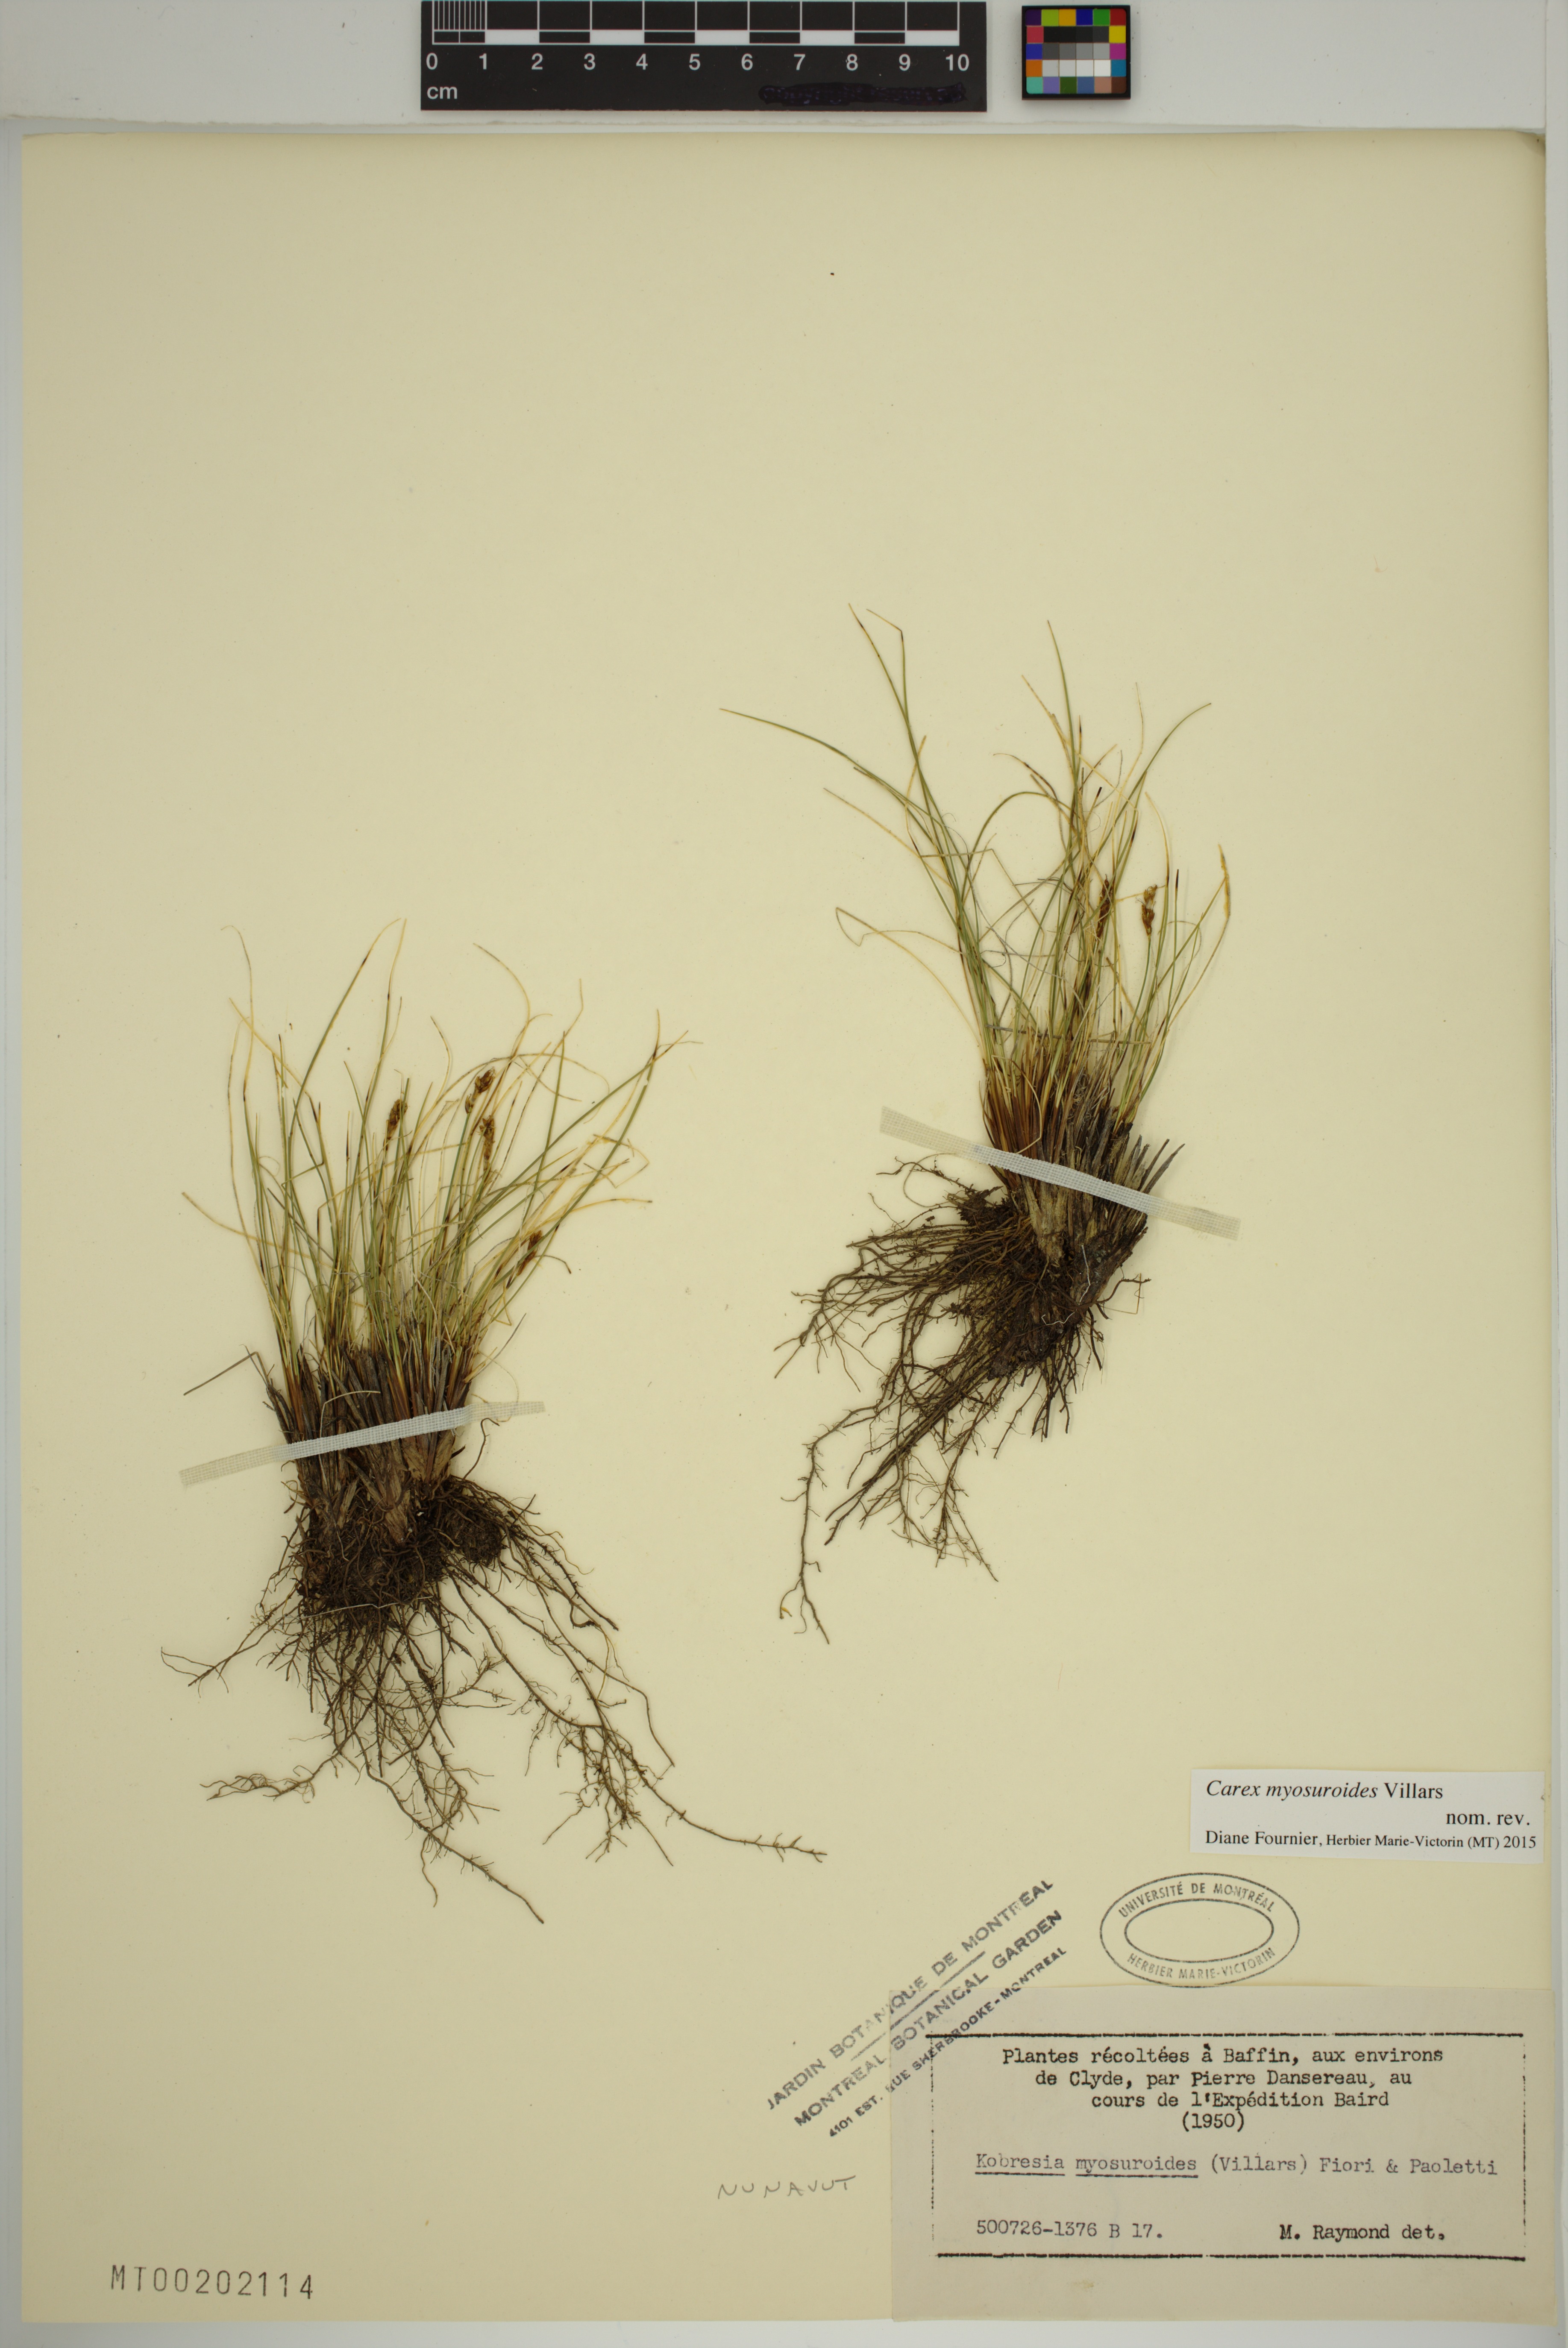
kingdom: Plantae
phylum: Tracheophyta
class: Liliopsida
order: Poales
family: Cyperaceae
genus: Carex
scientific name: Carex myosuroides
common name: Bellard's bog sedge
